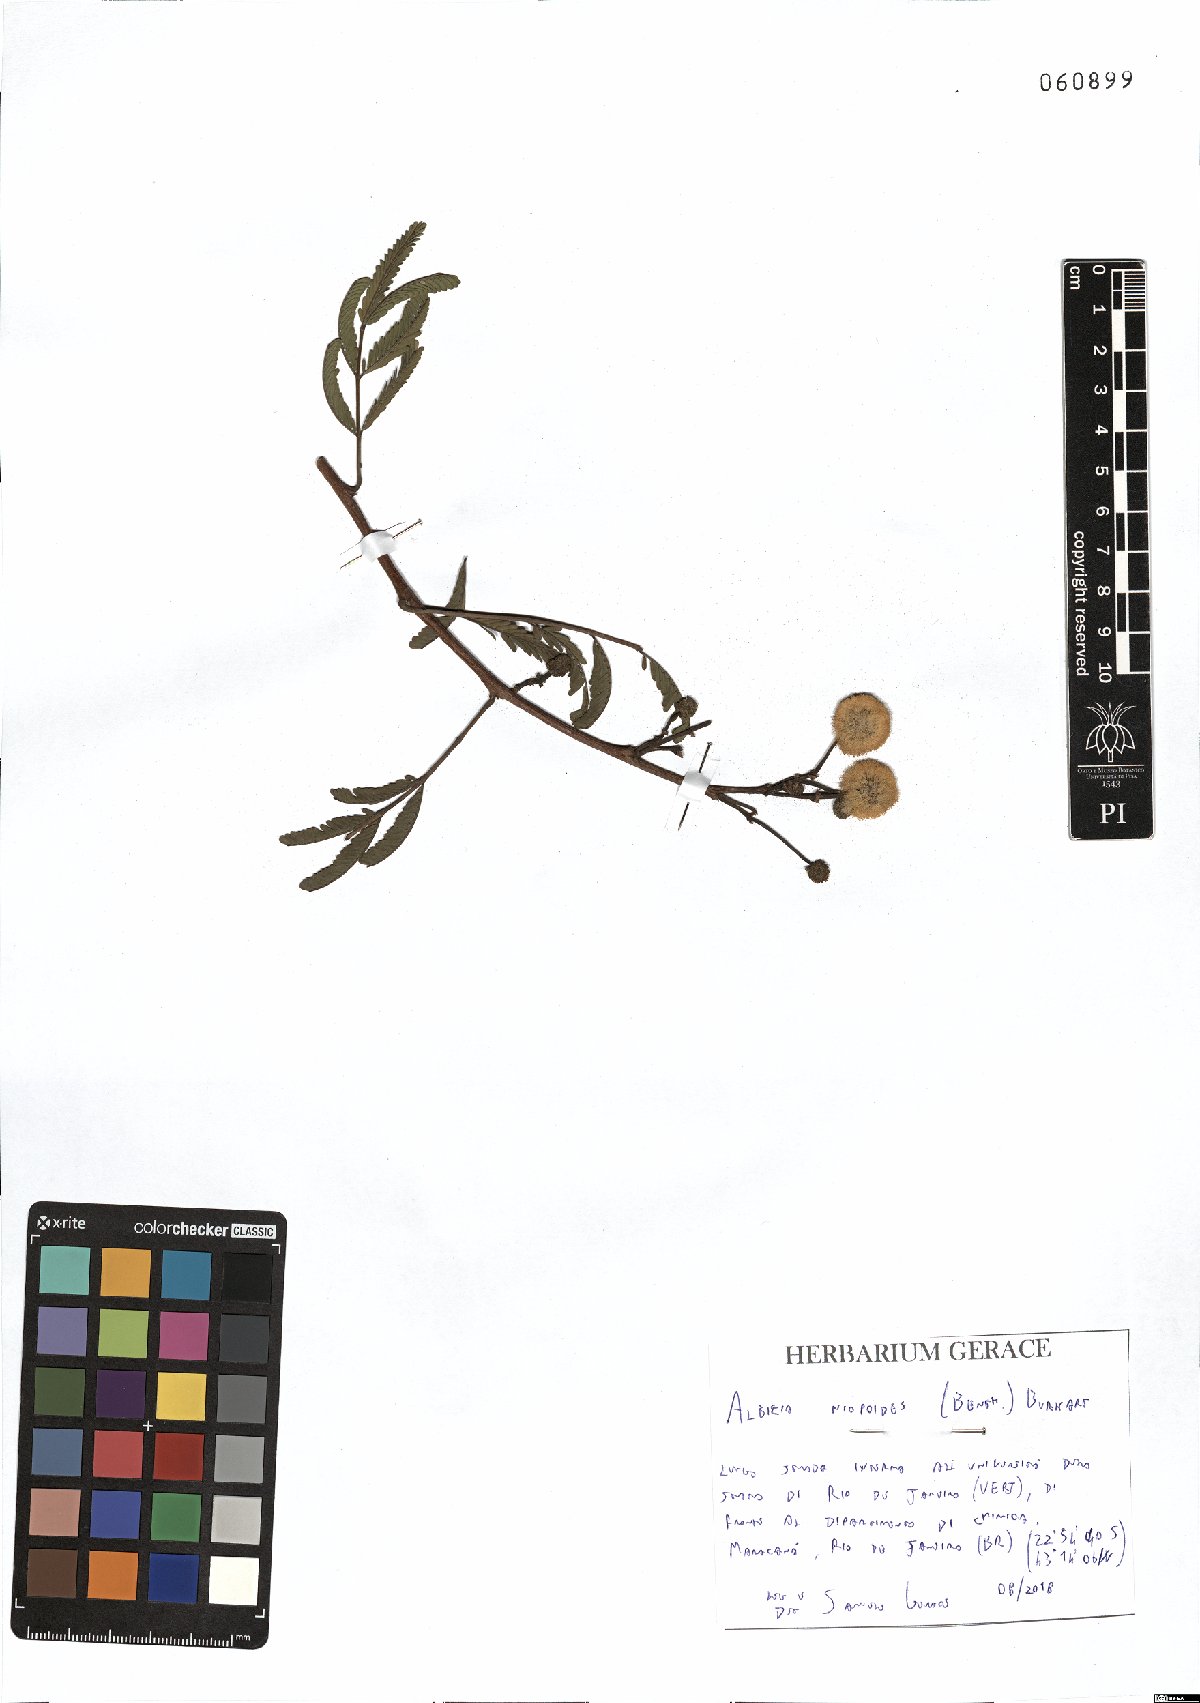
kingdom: Plantae
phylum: Tracheophyta
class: Magnoliopsida
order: Fabales
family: Fabaceae
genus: Albizia
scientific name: Albizia niopoides
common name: Silk tree
